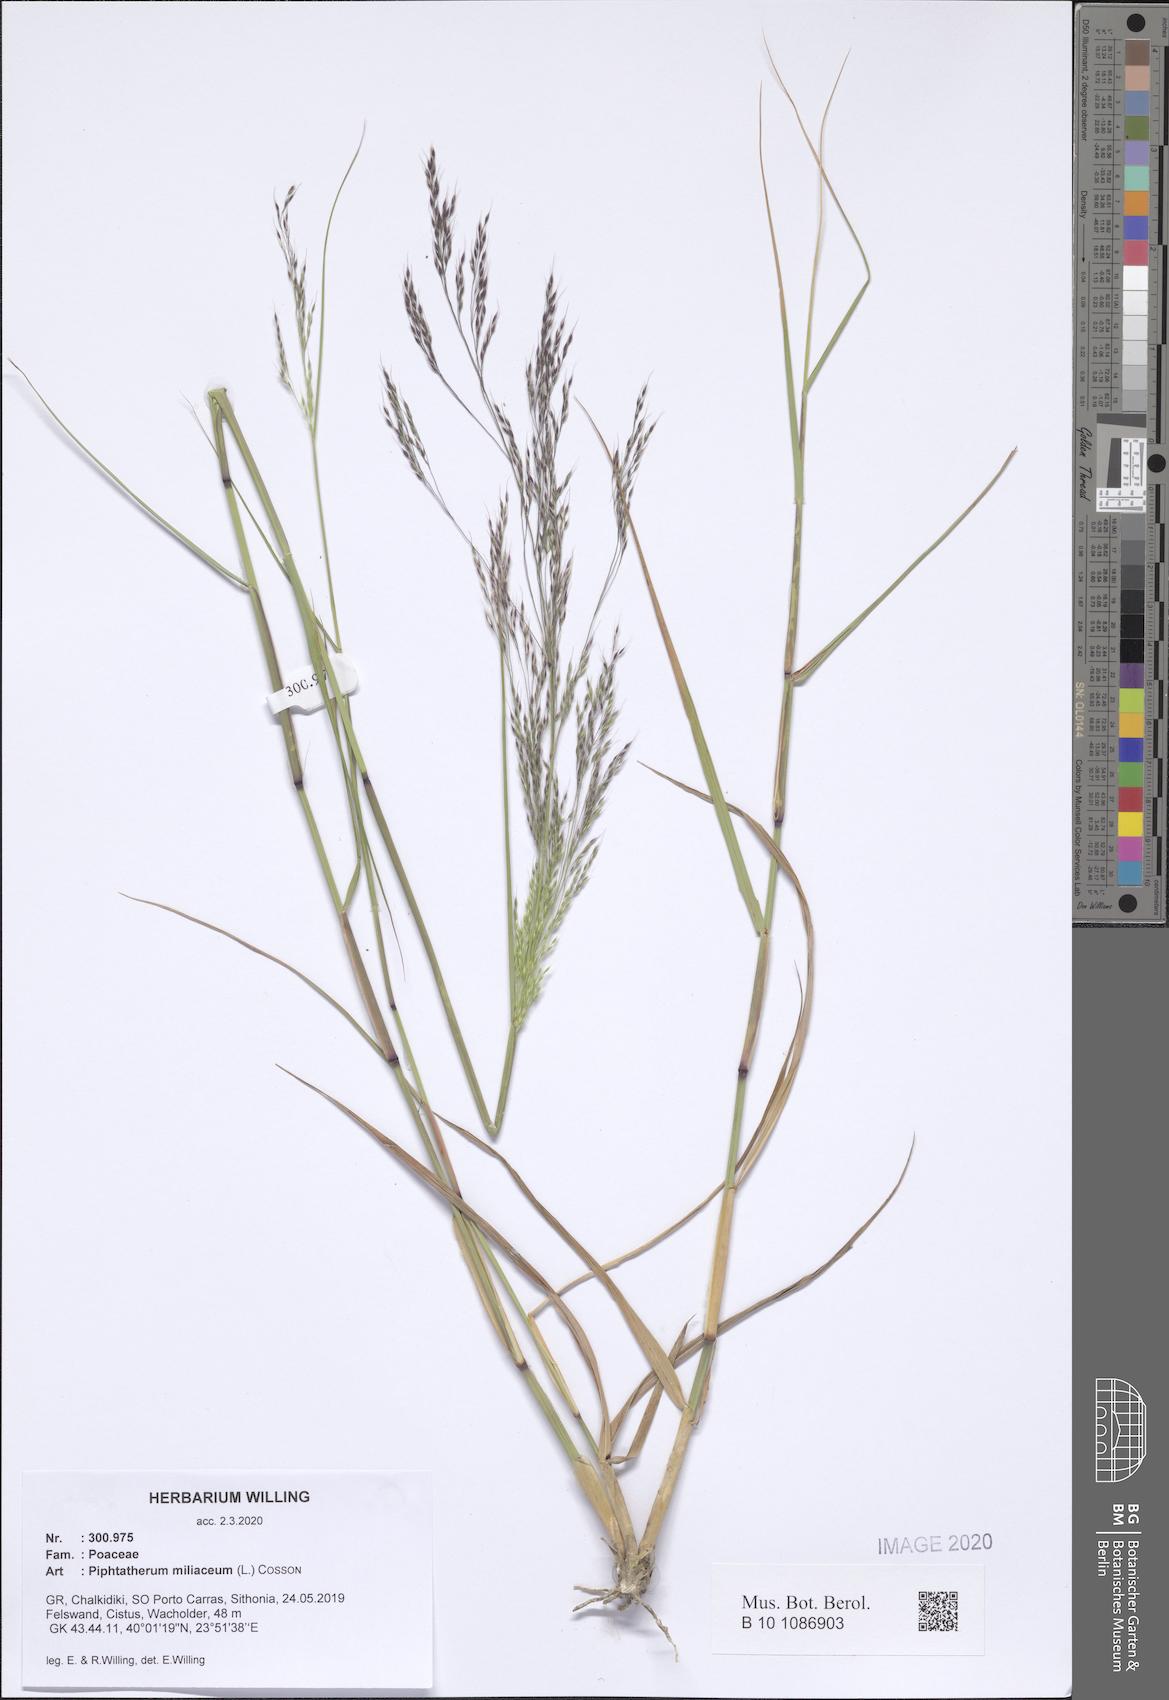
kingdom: Plantae
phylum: Tracheophyta
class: Liliopsida
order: Poales
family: Poaceae
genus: Oloptum
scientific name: Oloptum miliaceum
